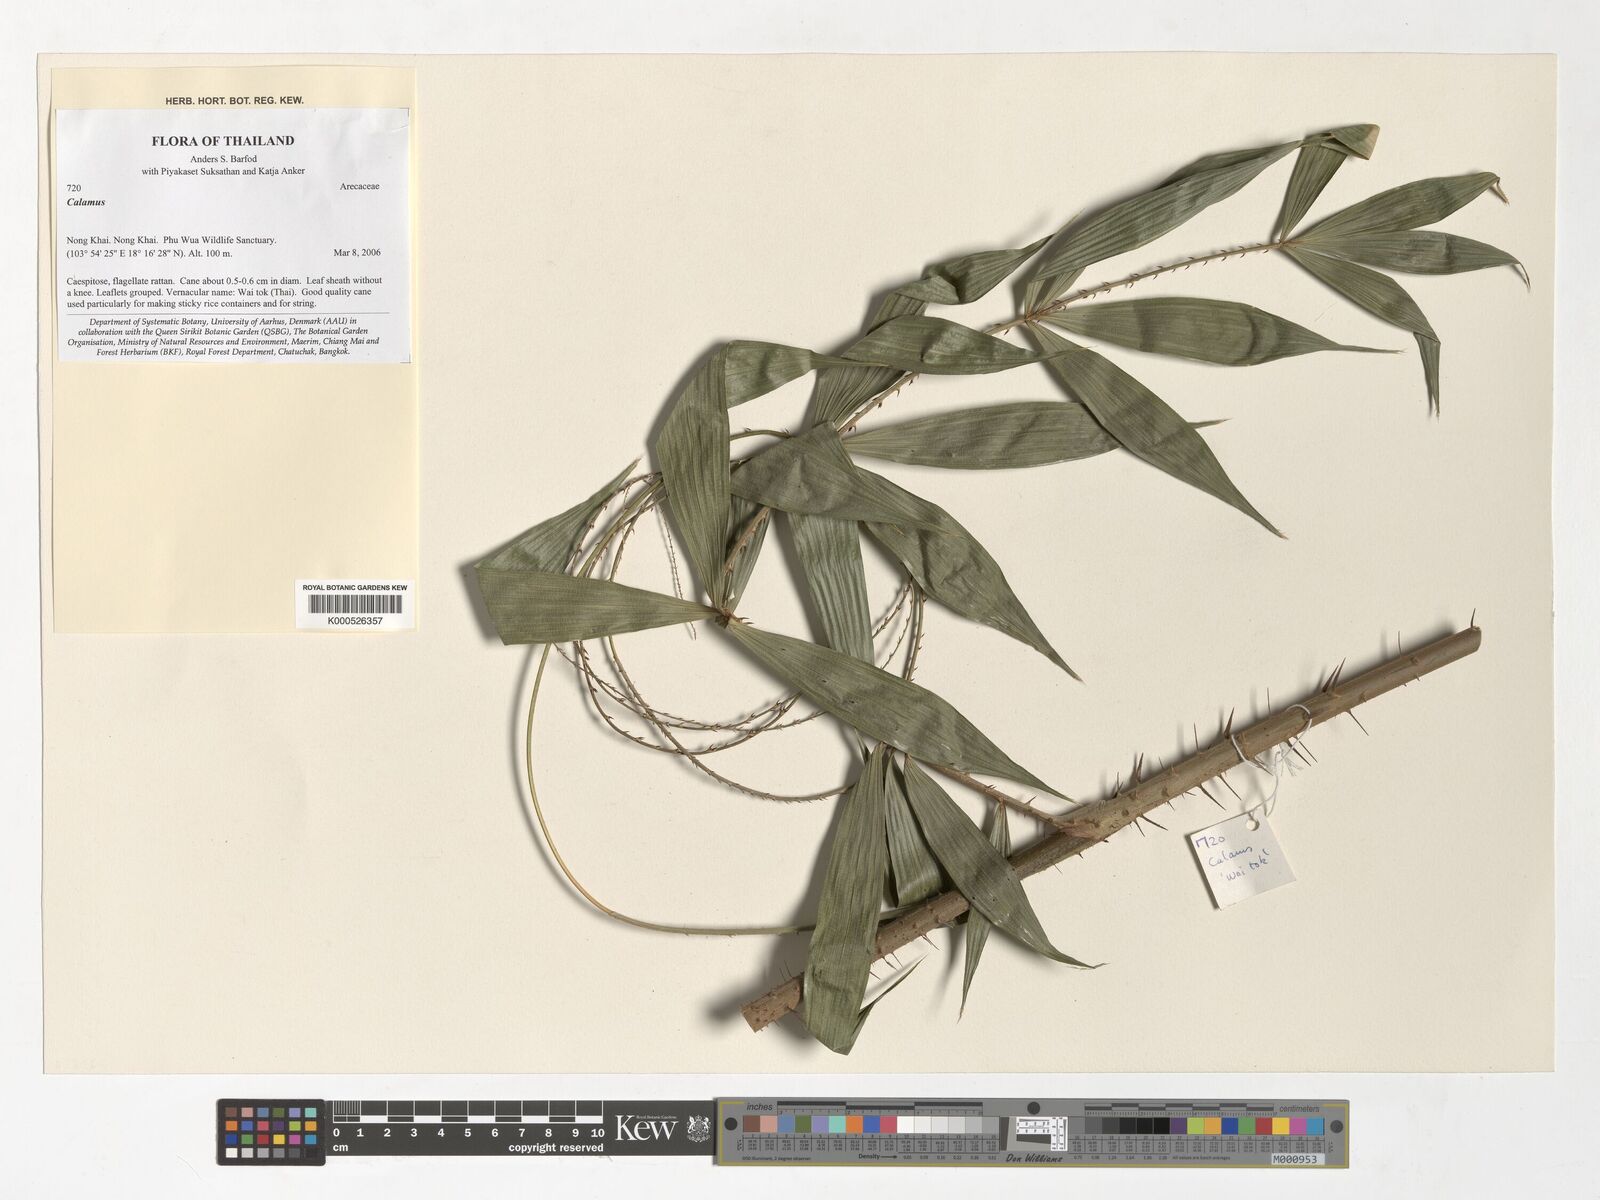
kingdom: Plantae
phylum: Tracheophyta
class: Liliopsida
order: Arecales
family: Arecaceae
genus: Calamus
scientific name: Calamus
